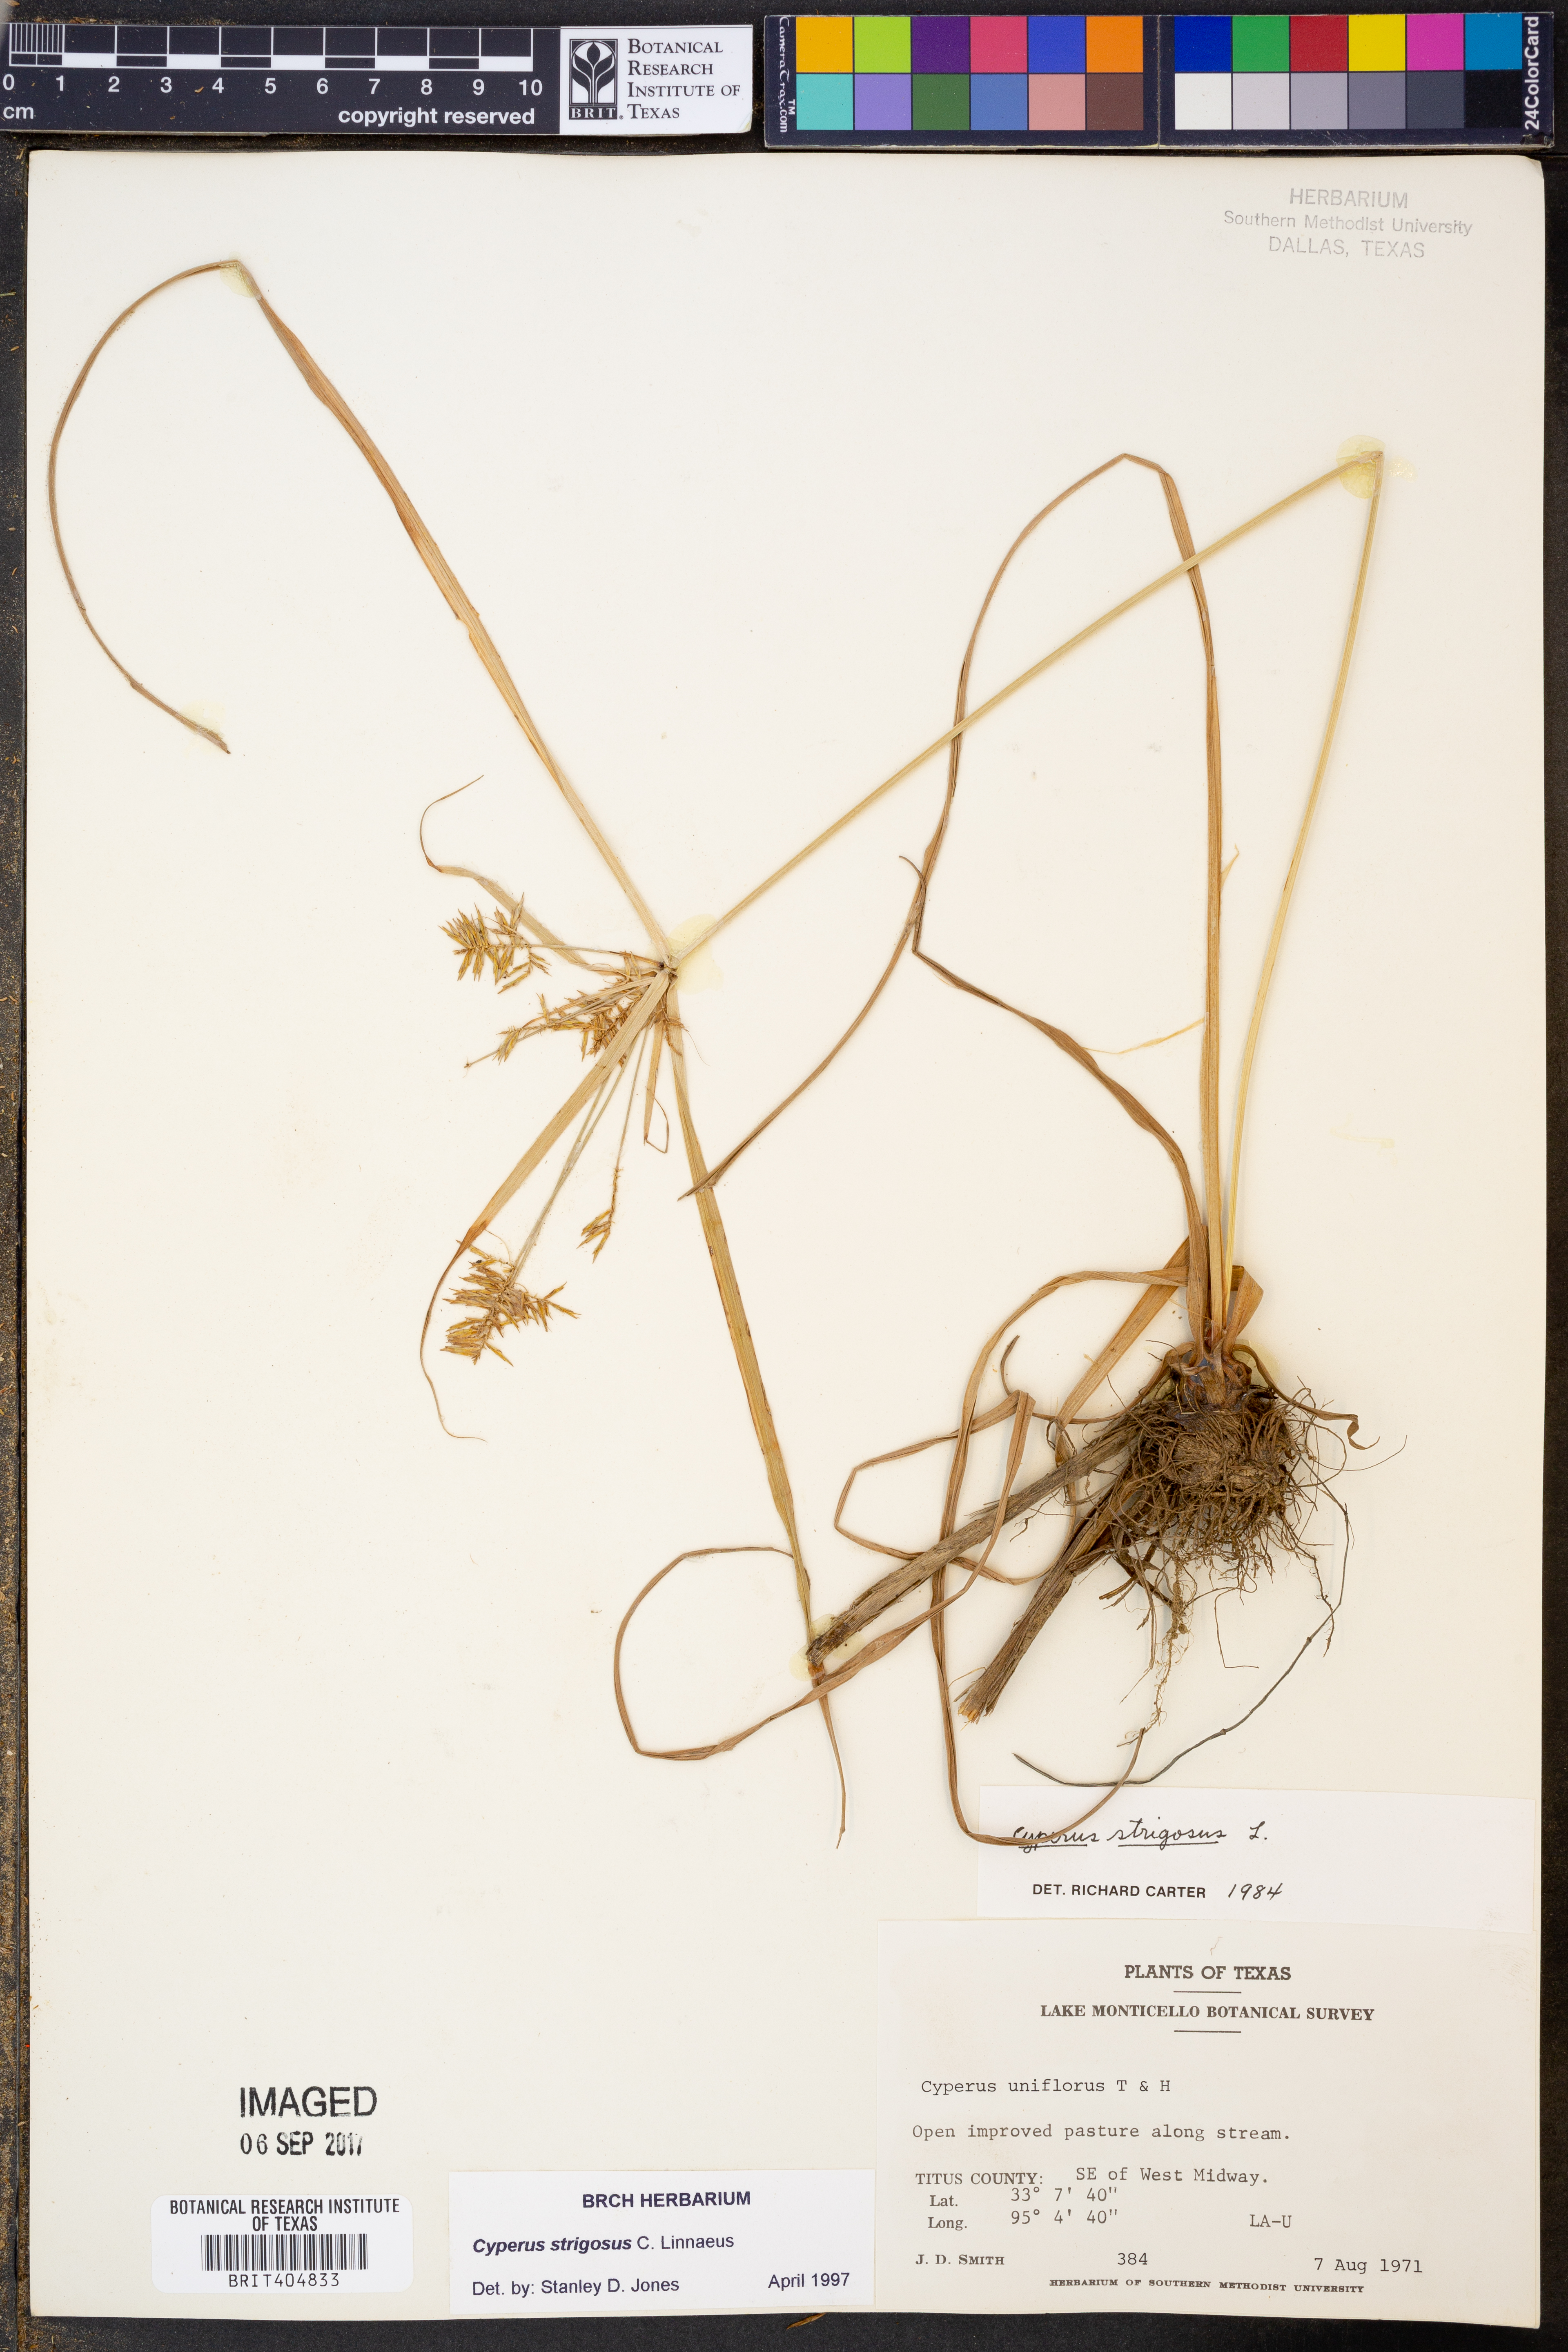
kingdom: Plantae
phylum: Tracheophyta
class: Liliopsida
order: Poales
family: Cyperaceae
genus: Cyperus
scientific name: Cyperus strigosus
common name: False nutsedge
